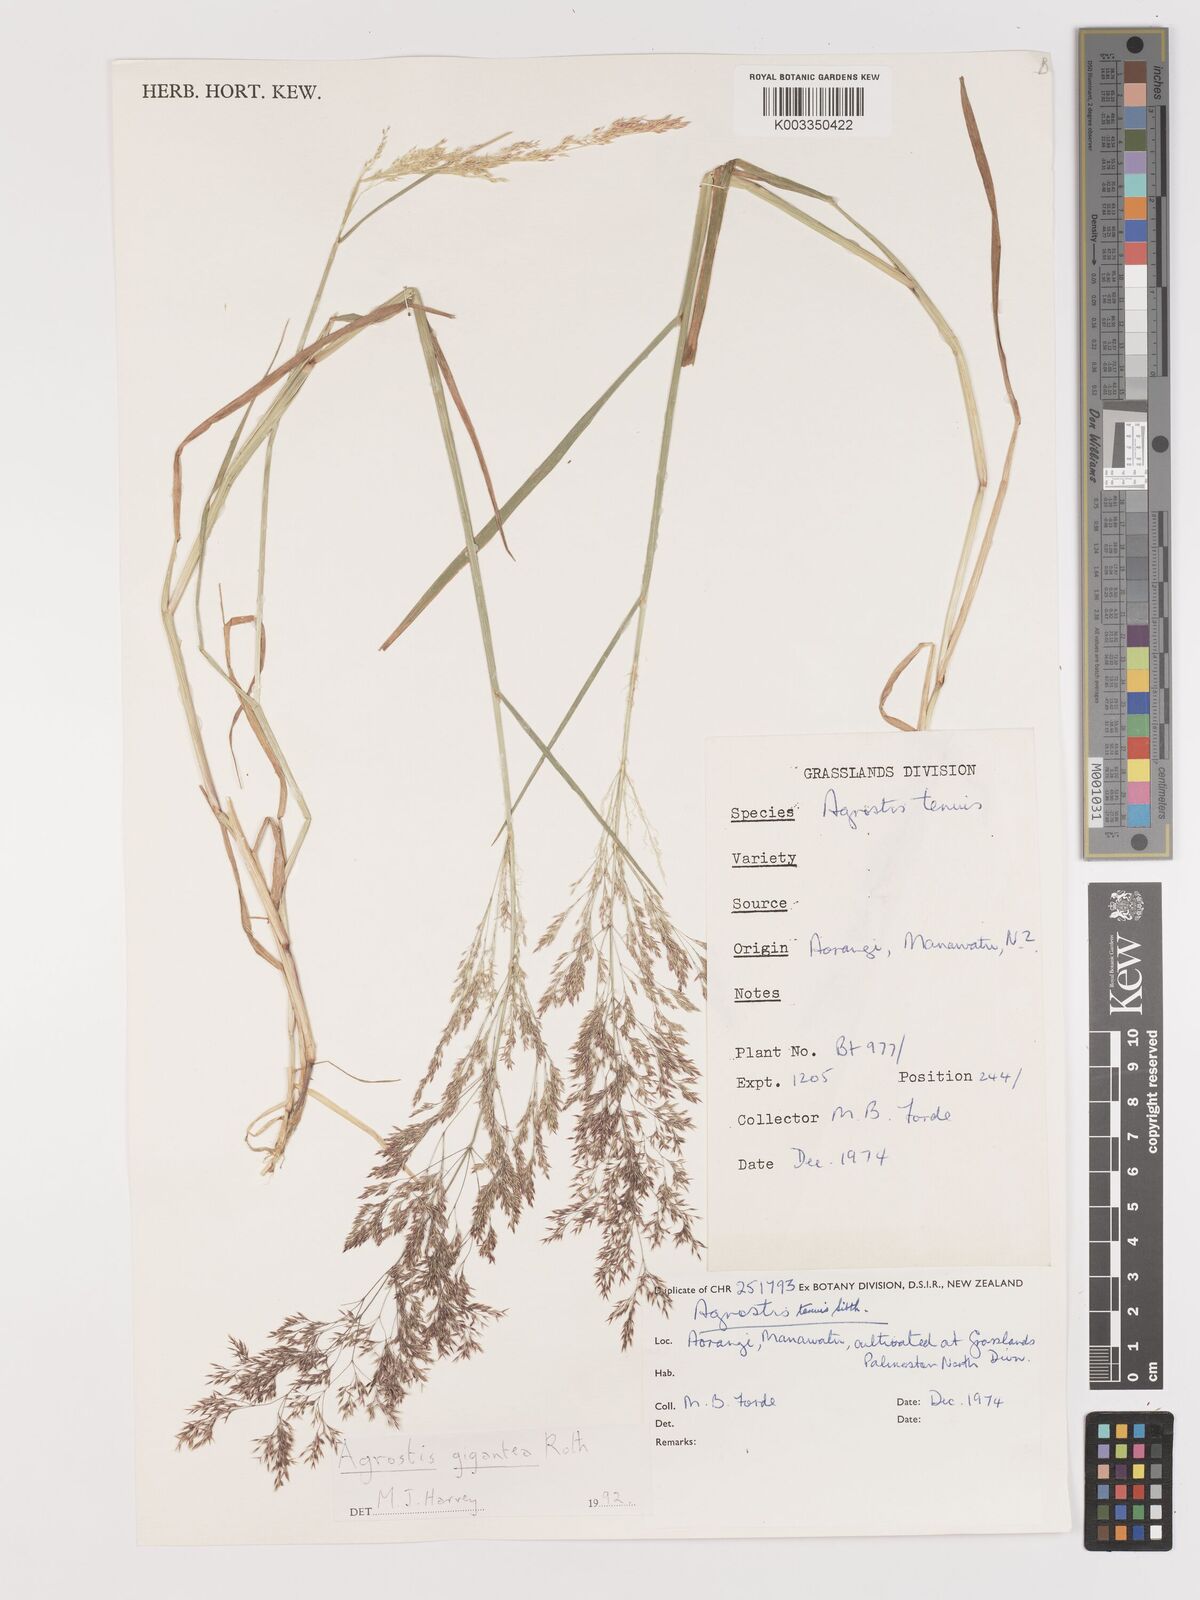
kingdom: Plantae
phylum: Tracheophyta
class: Liliopsida
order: Poales
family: Poaceae
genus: Agrostis
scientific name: Agrostis capillaris
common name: Colonial bentgrass
